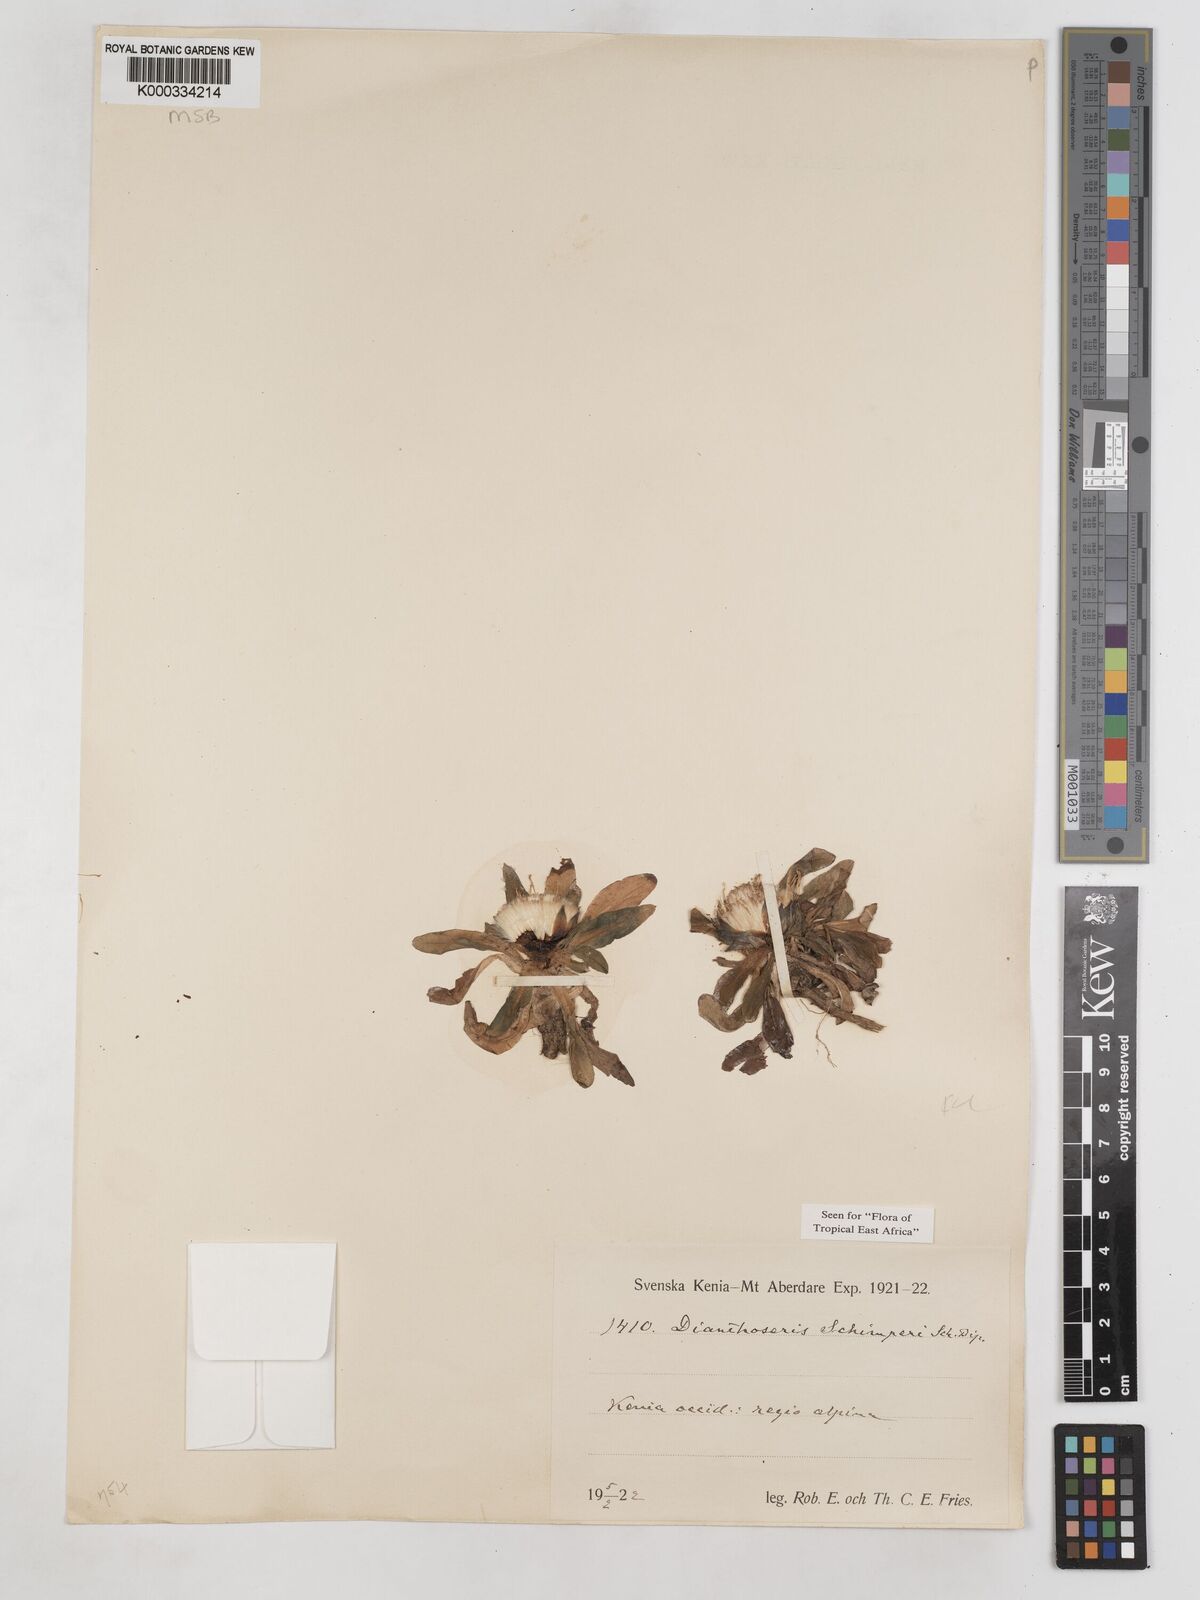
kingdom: Plantae
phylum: Tracheophyta
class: Magnoliopsida
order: Asterales
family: Asteraceae
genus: Crepis
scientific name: Crepis dianthoseris
